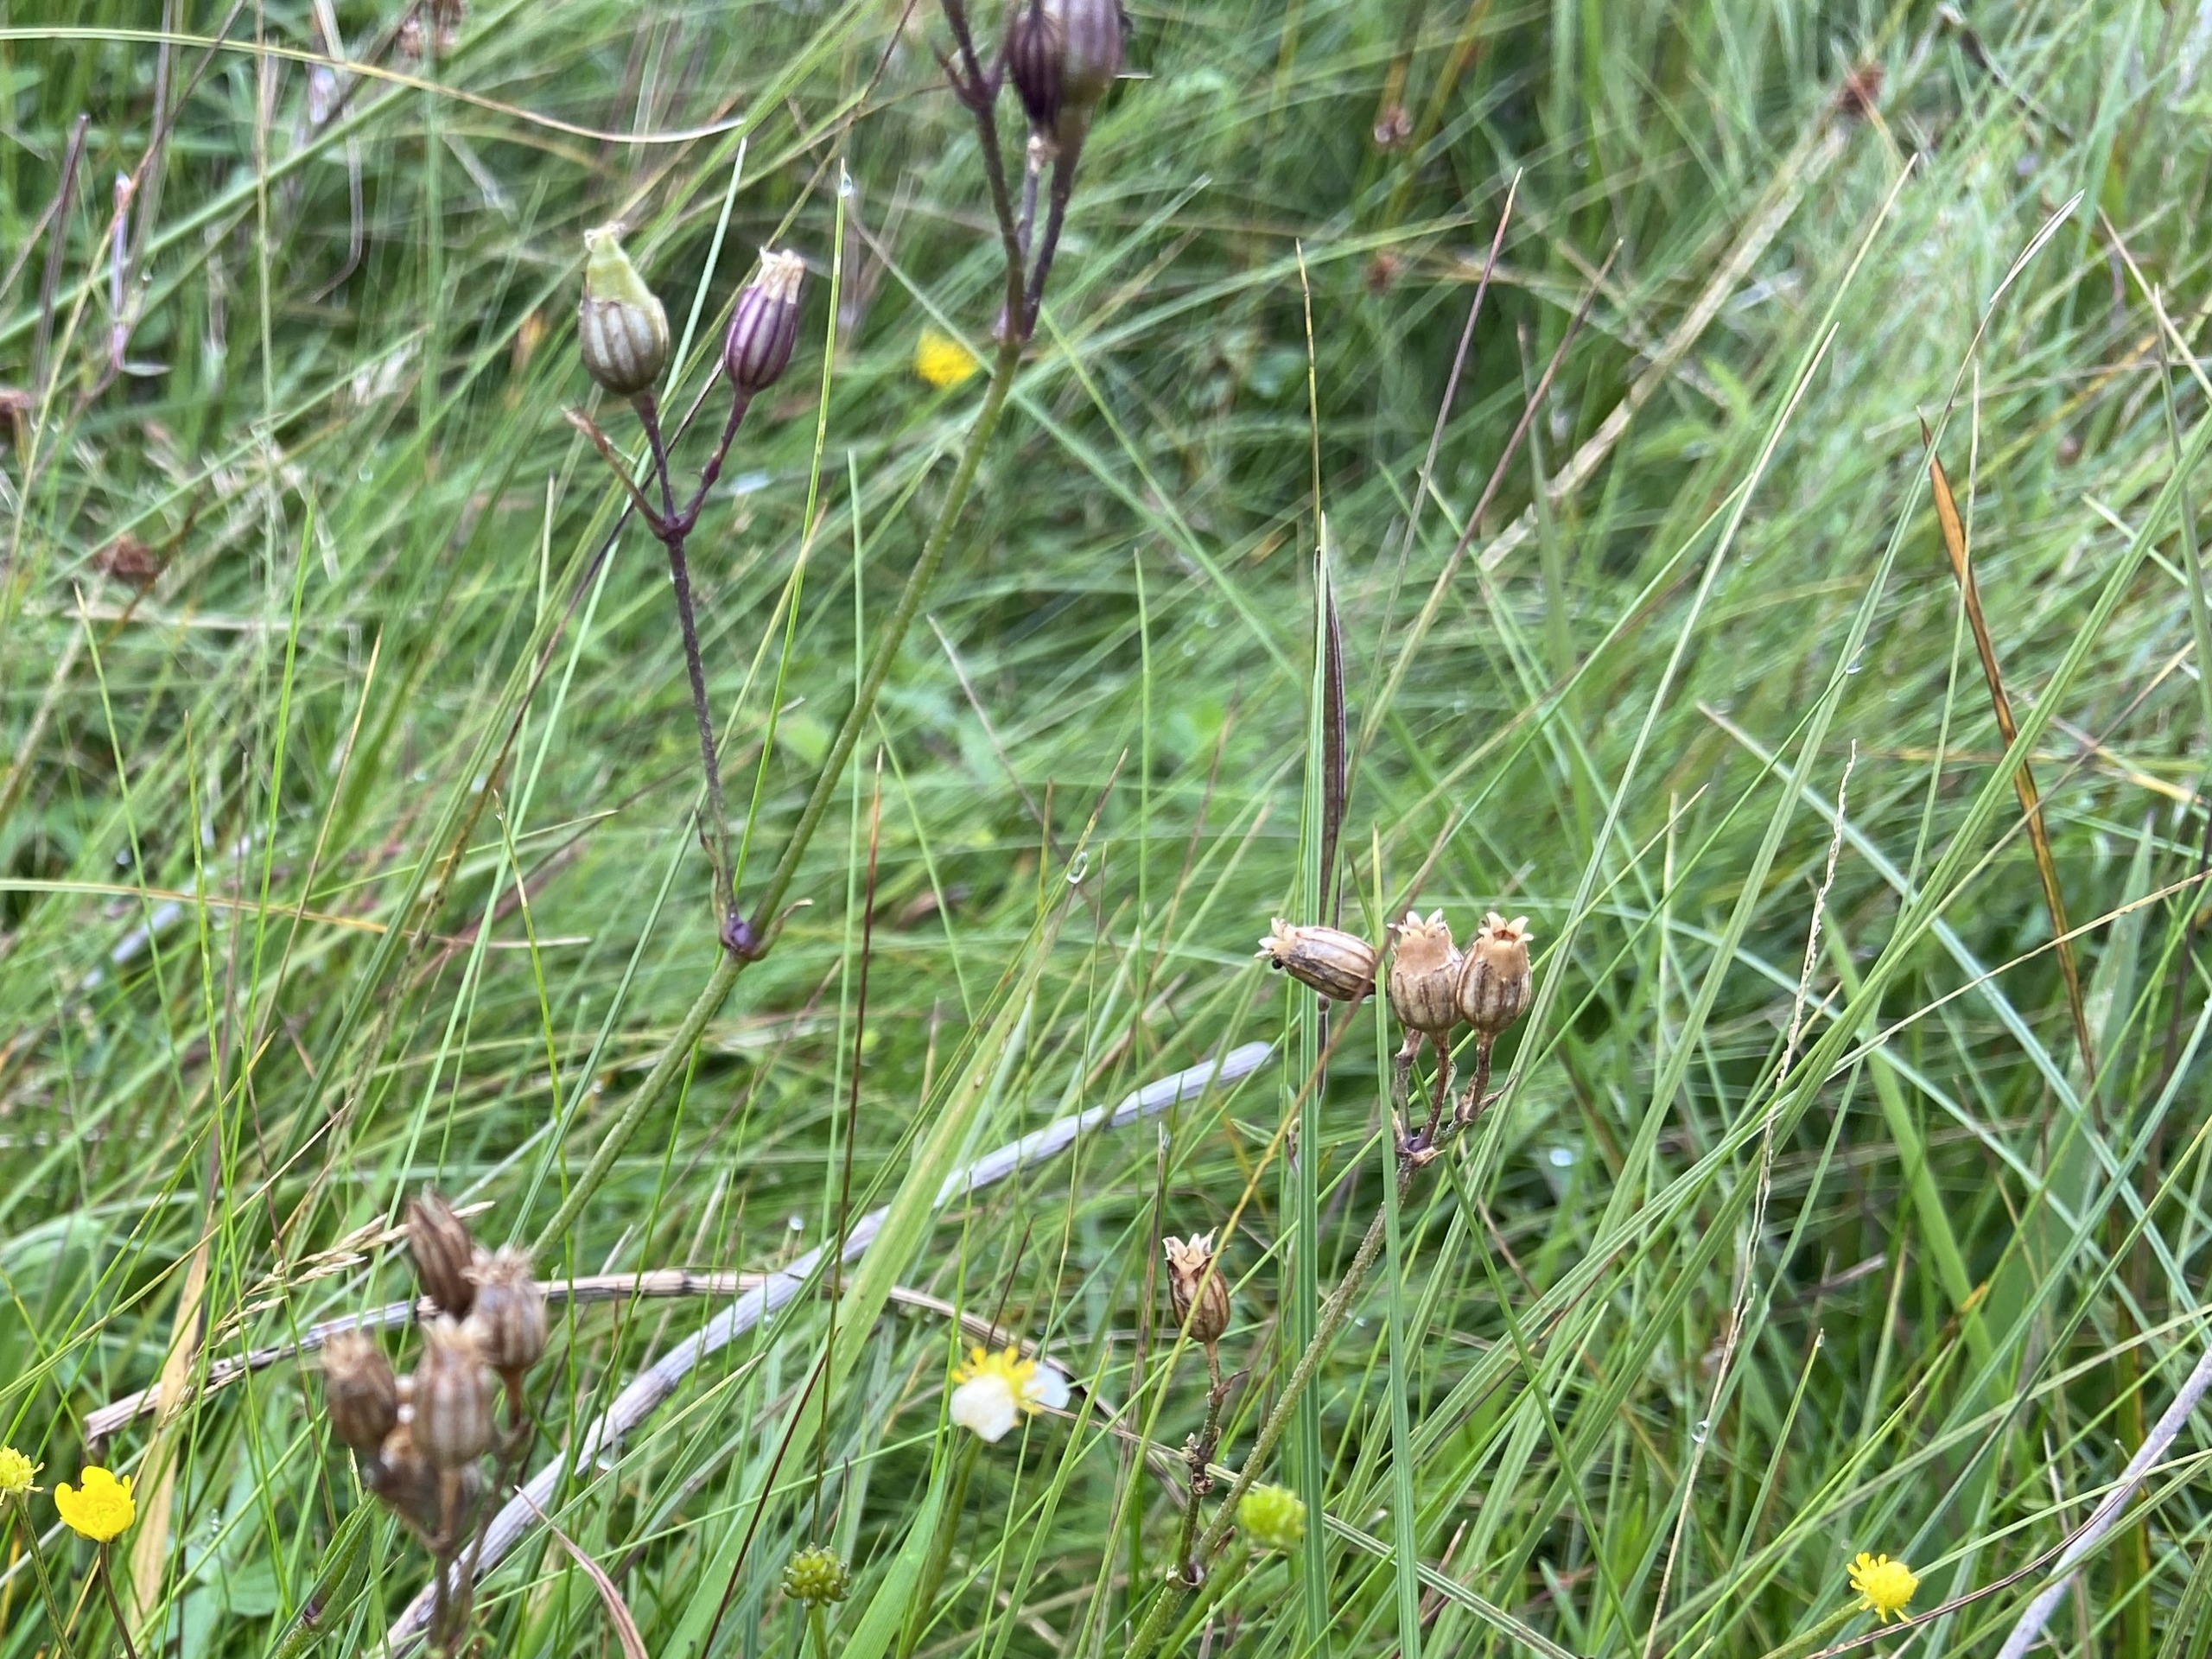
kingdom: Plantae
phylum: Tracheophyta
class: Magnoliopsida
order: Caryophyllales
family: Caryophyllaceae
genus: Silene
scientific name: Silene flos-cuculi
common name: Trævlekrone
